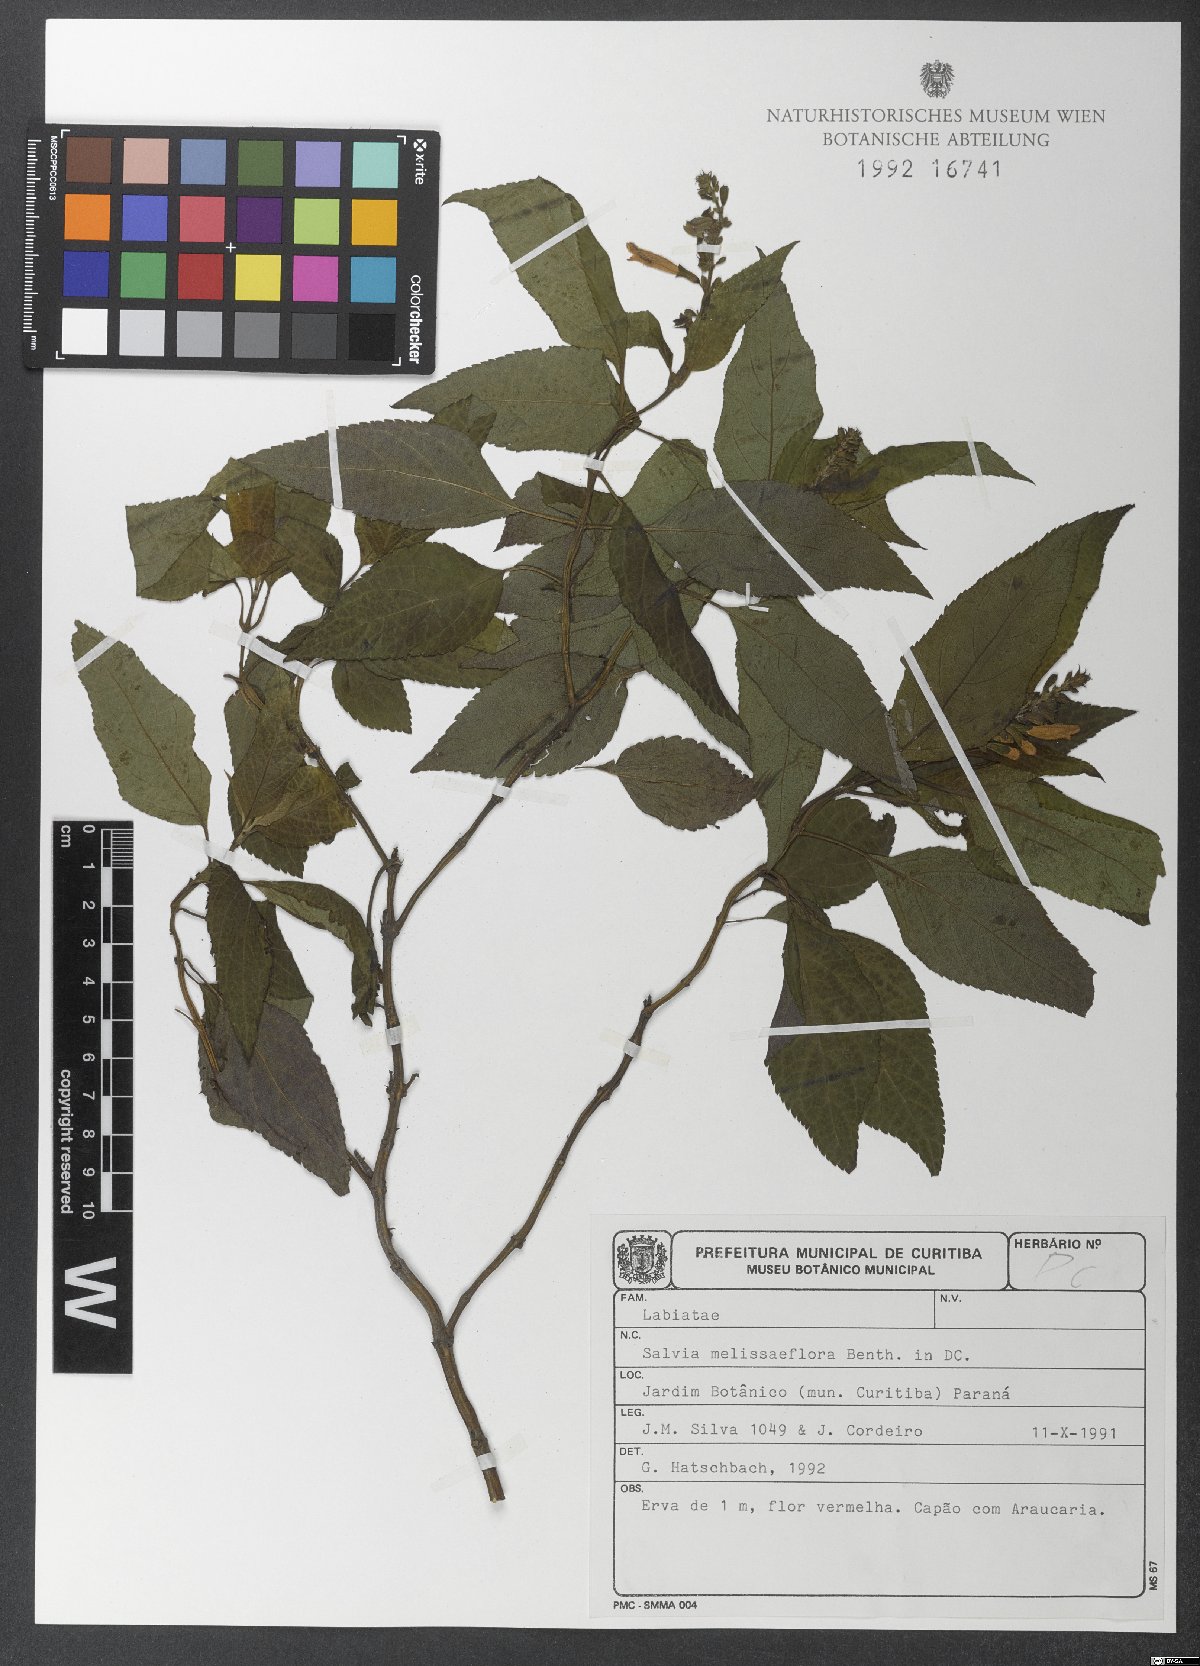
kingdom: Plantae
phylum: Tracheophyta
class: Magnoliopsida
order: Lamiales
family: Lamiaceae
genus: Salvia
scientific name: Salvia melissiflora
